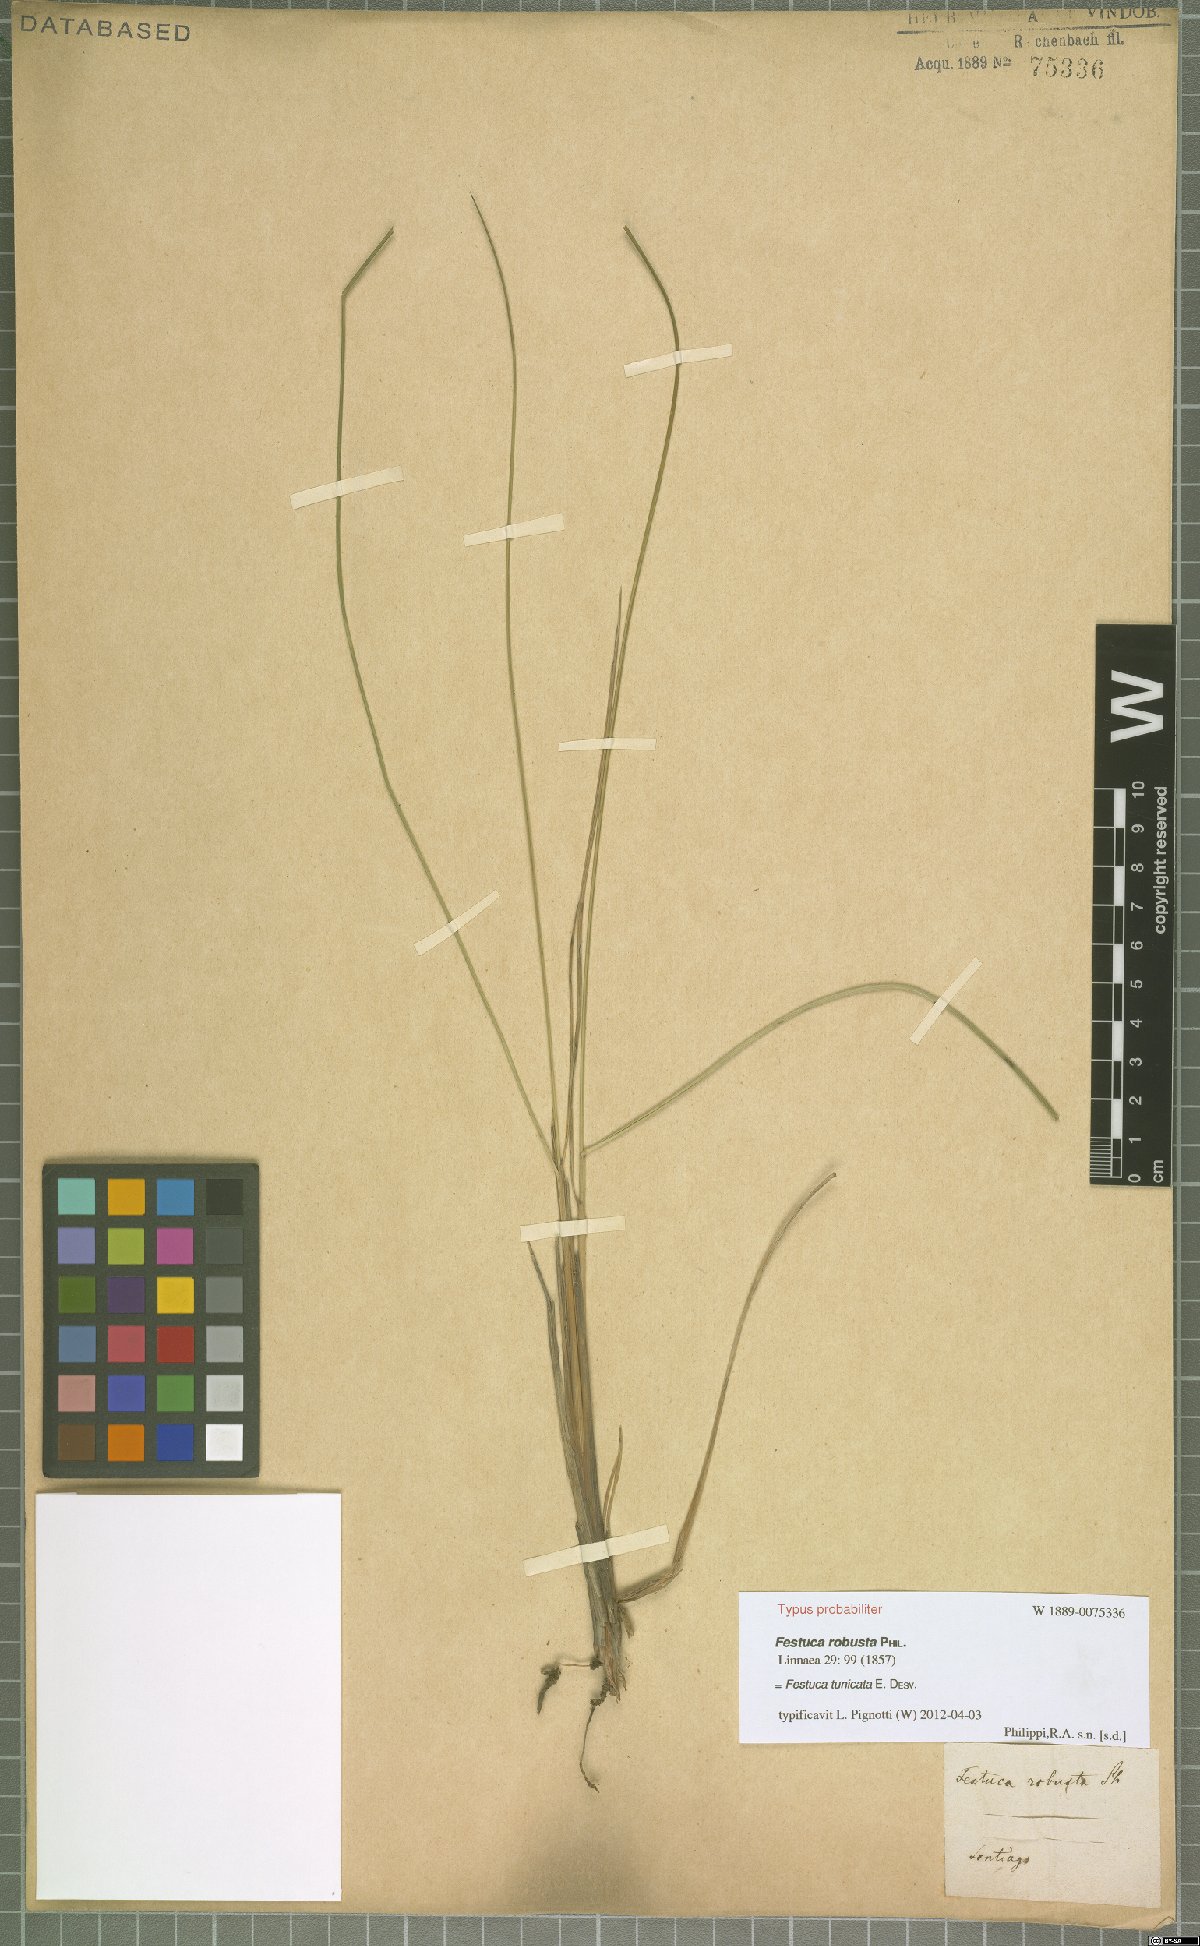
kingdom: Plantae
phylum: Tracheophyta
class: Liliopsida
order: Poales
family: Poaceae
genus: Festuca
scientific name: Festuca acanthophylla
